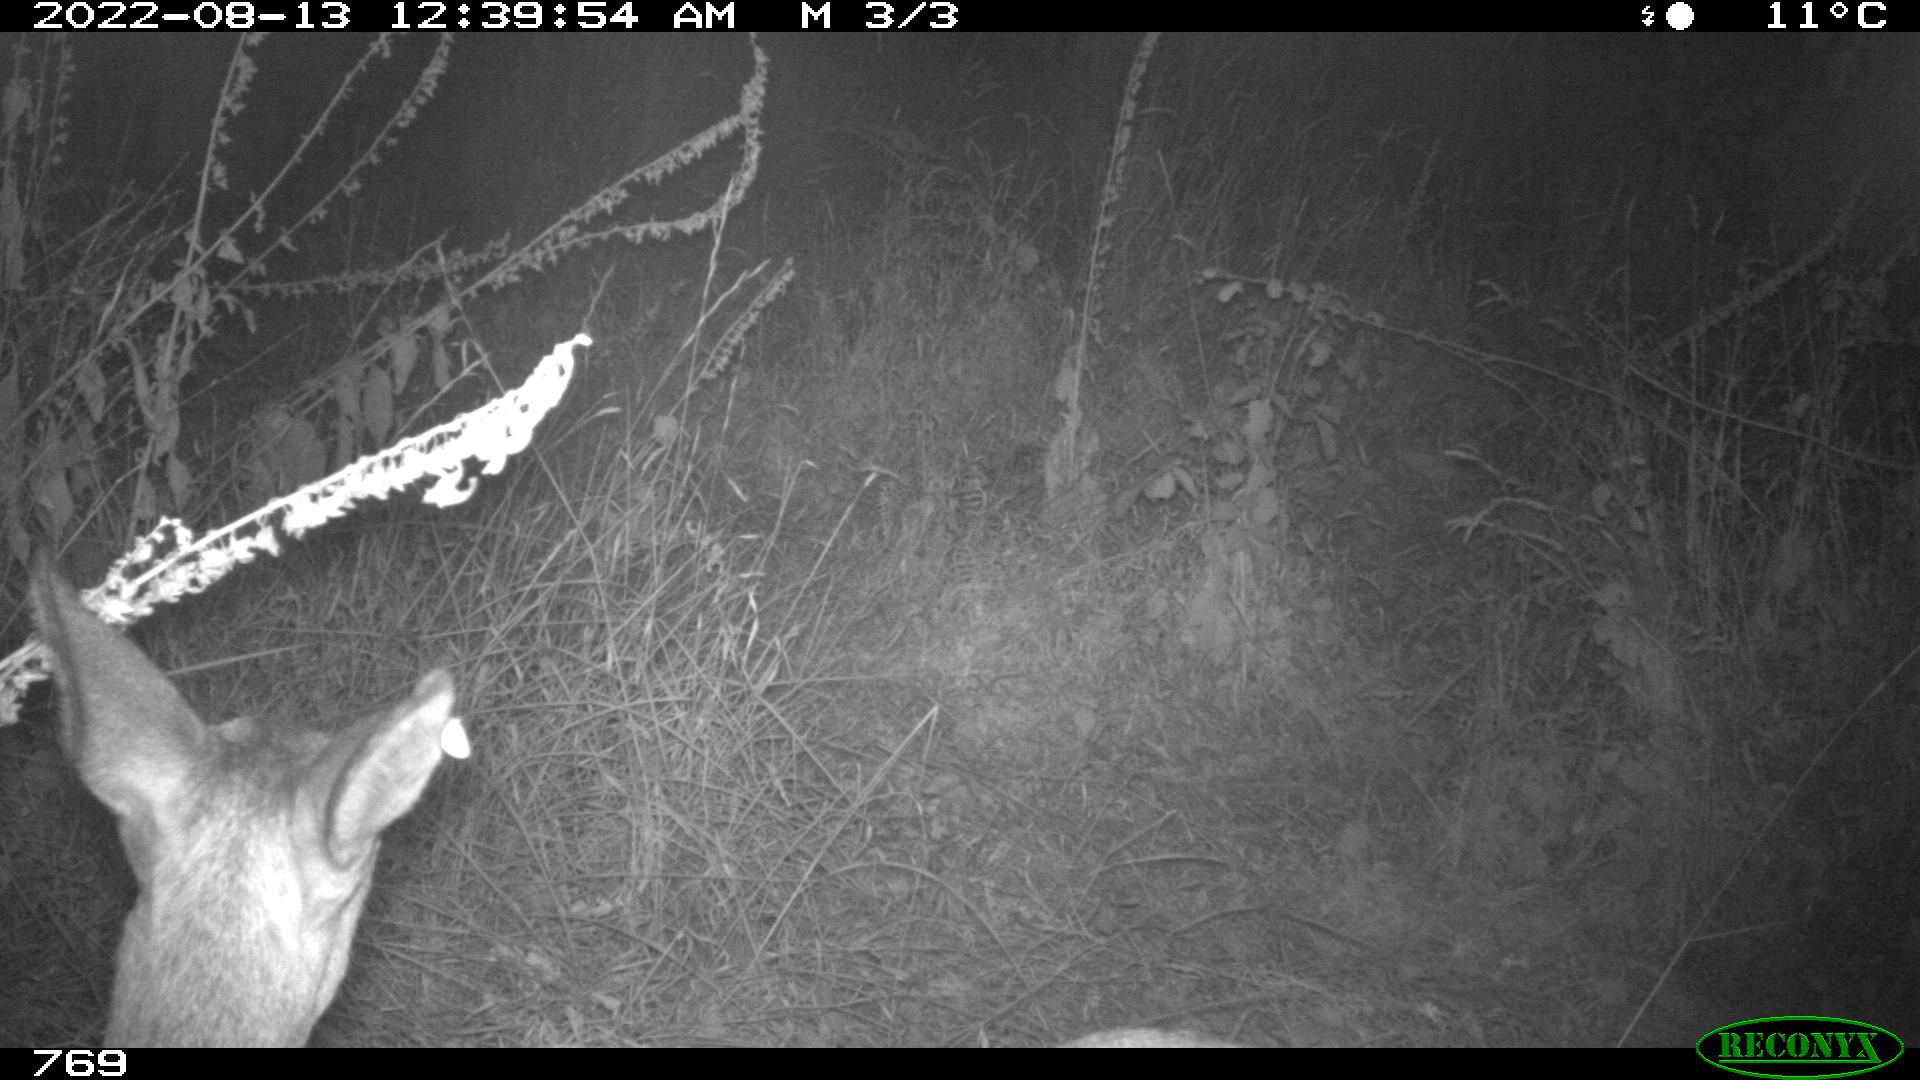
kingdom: Animalia
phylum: Chordata
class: Mammalia
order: Artiodactyla
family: Cervidae
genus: Capreolus
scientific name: Capreolus capreolus
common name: Western roe deer
